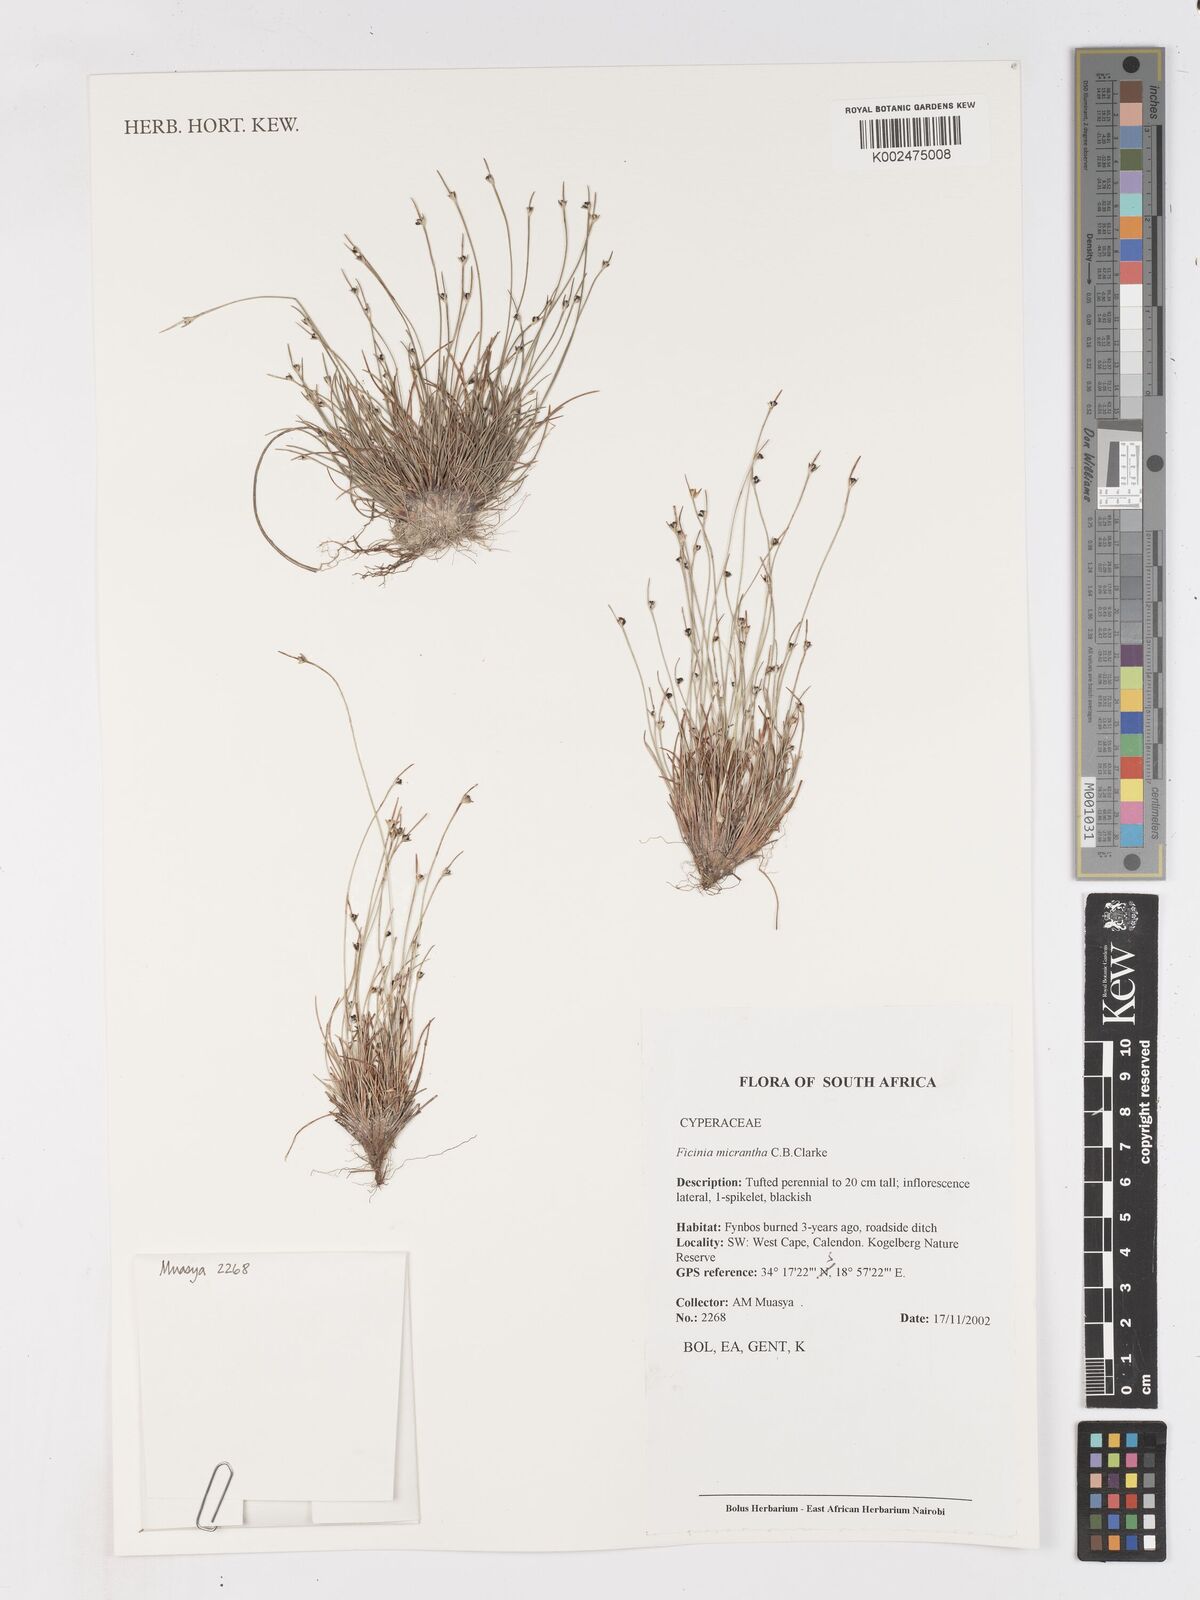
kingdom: Plantae
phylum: Tracheophyta
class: Liliopsida
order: Poales
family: Cyperaceae
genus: Ficinia
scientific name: Ficinia micrantha
